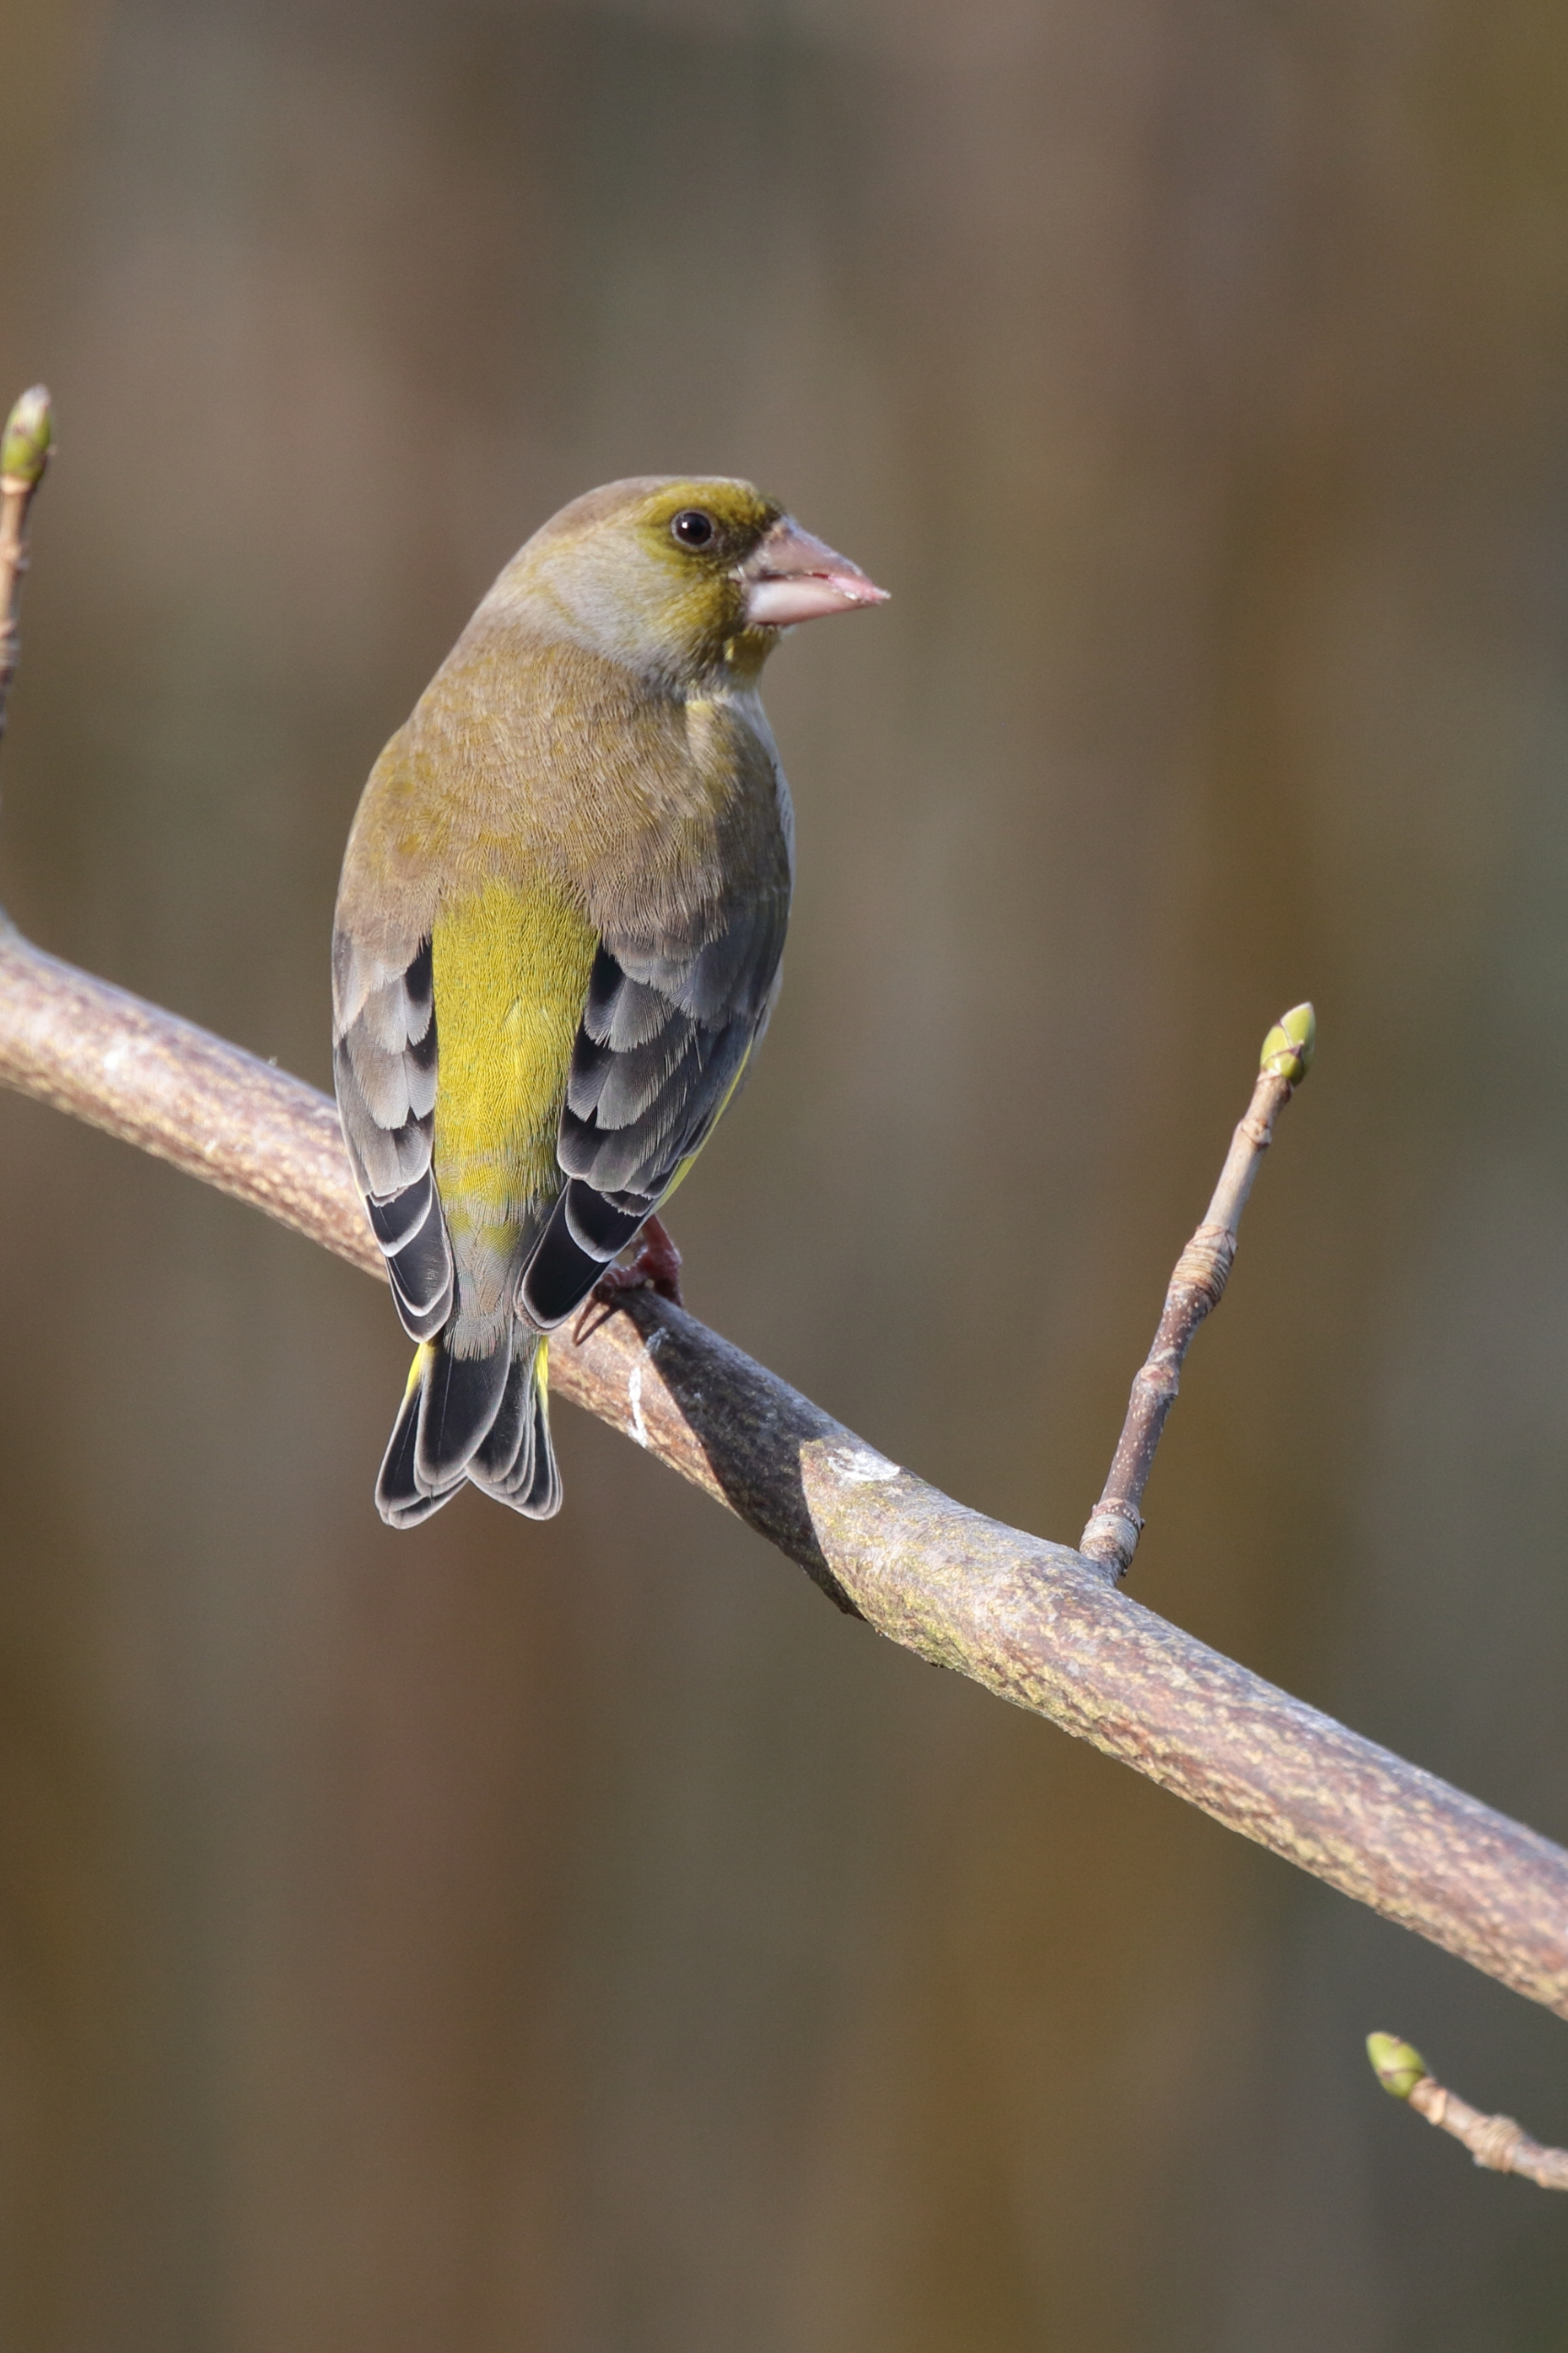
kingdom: Plantae
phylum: Tracheophyta
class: Liliopsida
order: Poales
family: Poaceae
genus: Chloris
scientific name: Chloris chloris
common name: Grønirisk
